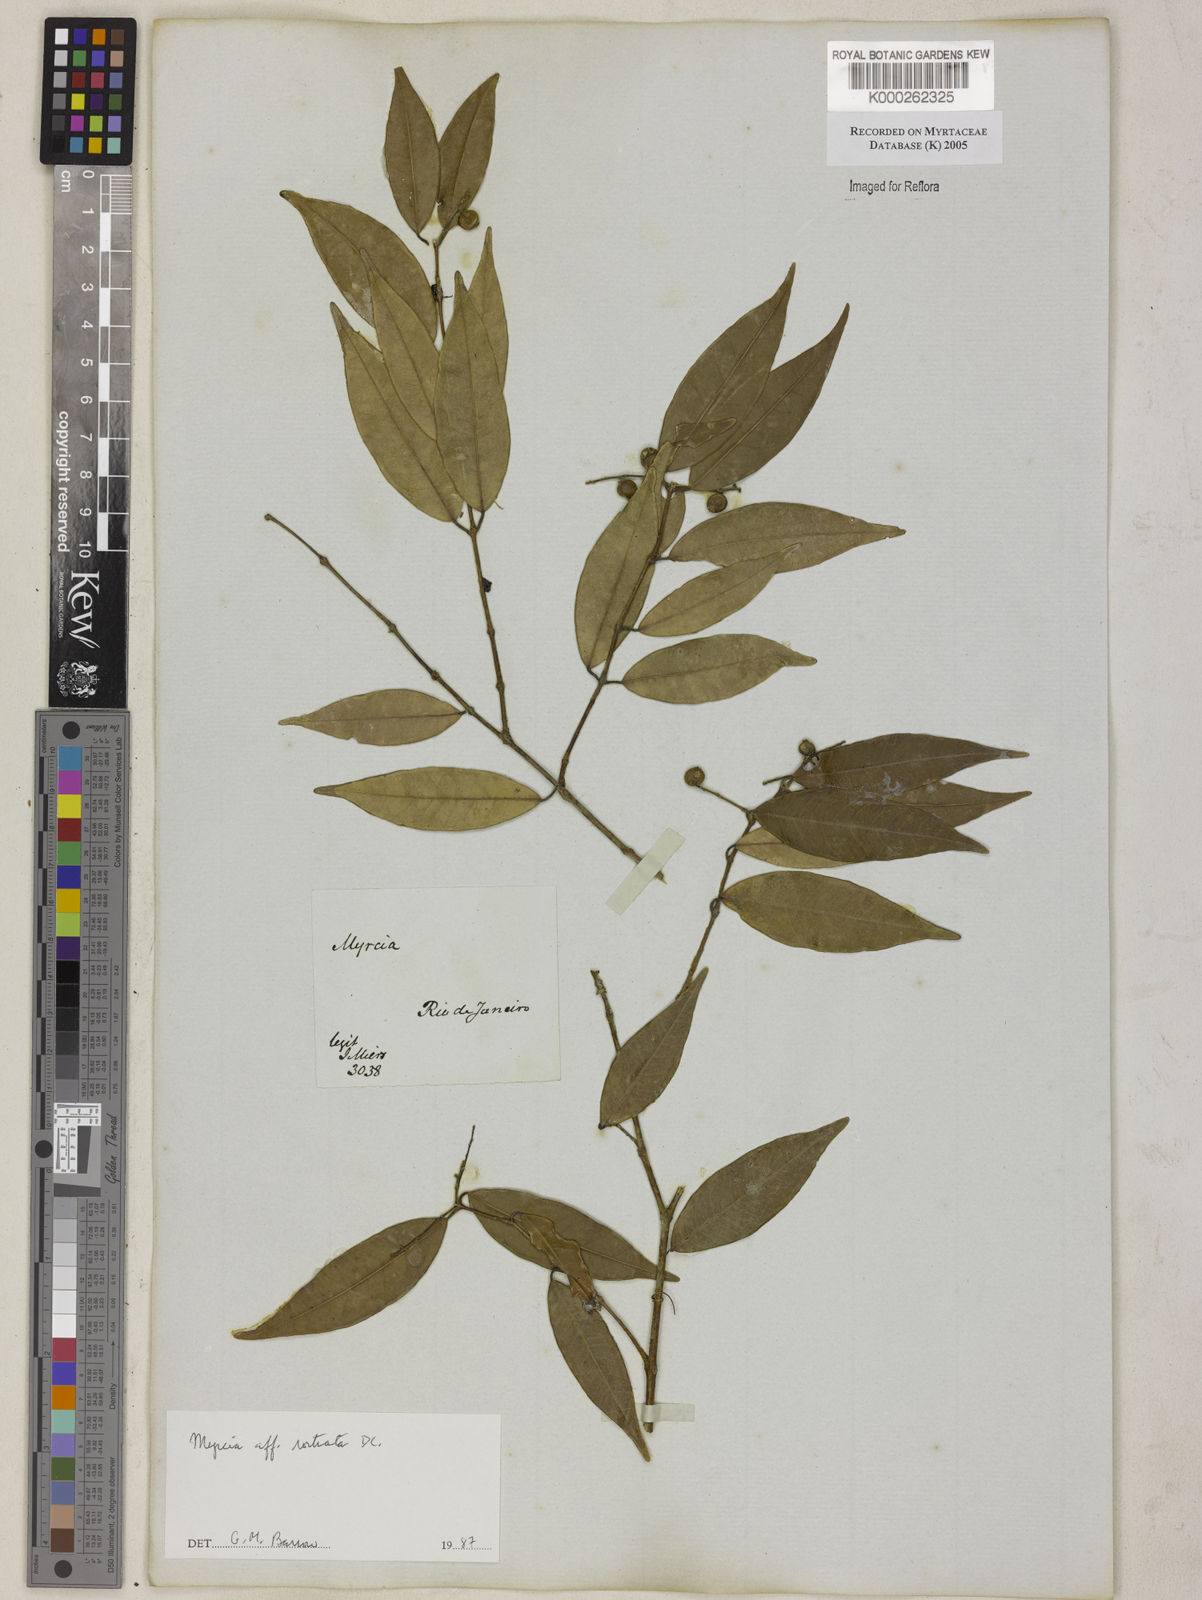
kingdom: Plantae
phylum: Tracheophyta
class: Magnoliopsida
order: Myrtales
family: Myrtaceae
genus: Myrcia
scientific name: Myrcia splendens
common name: Surinam cherry
